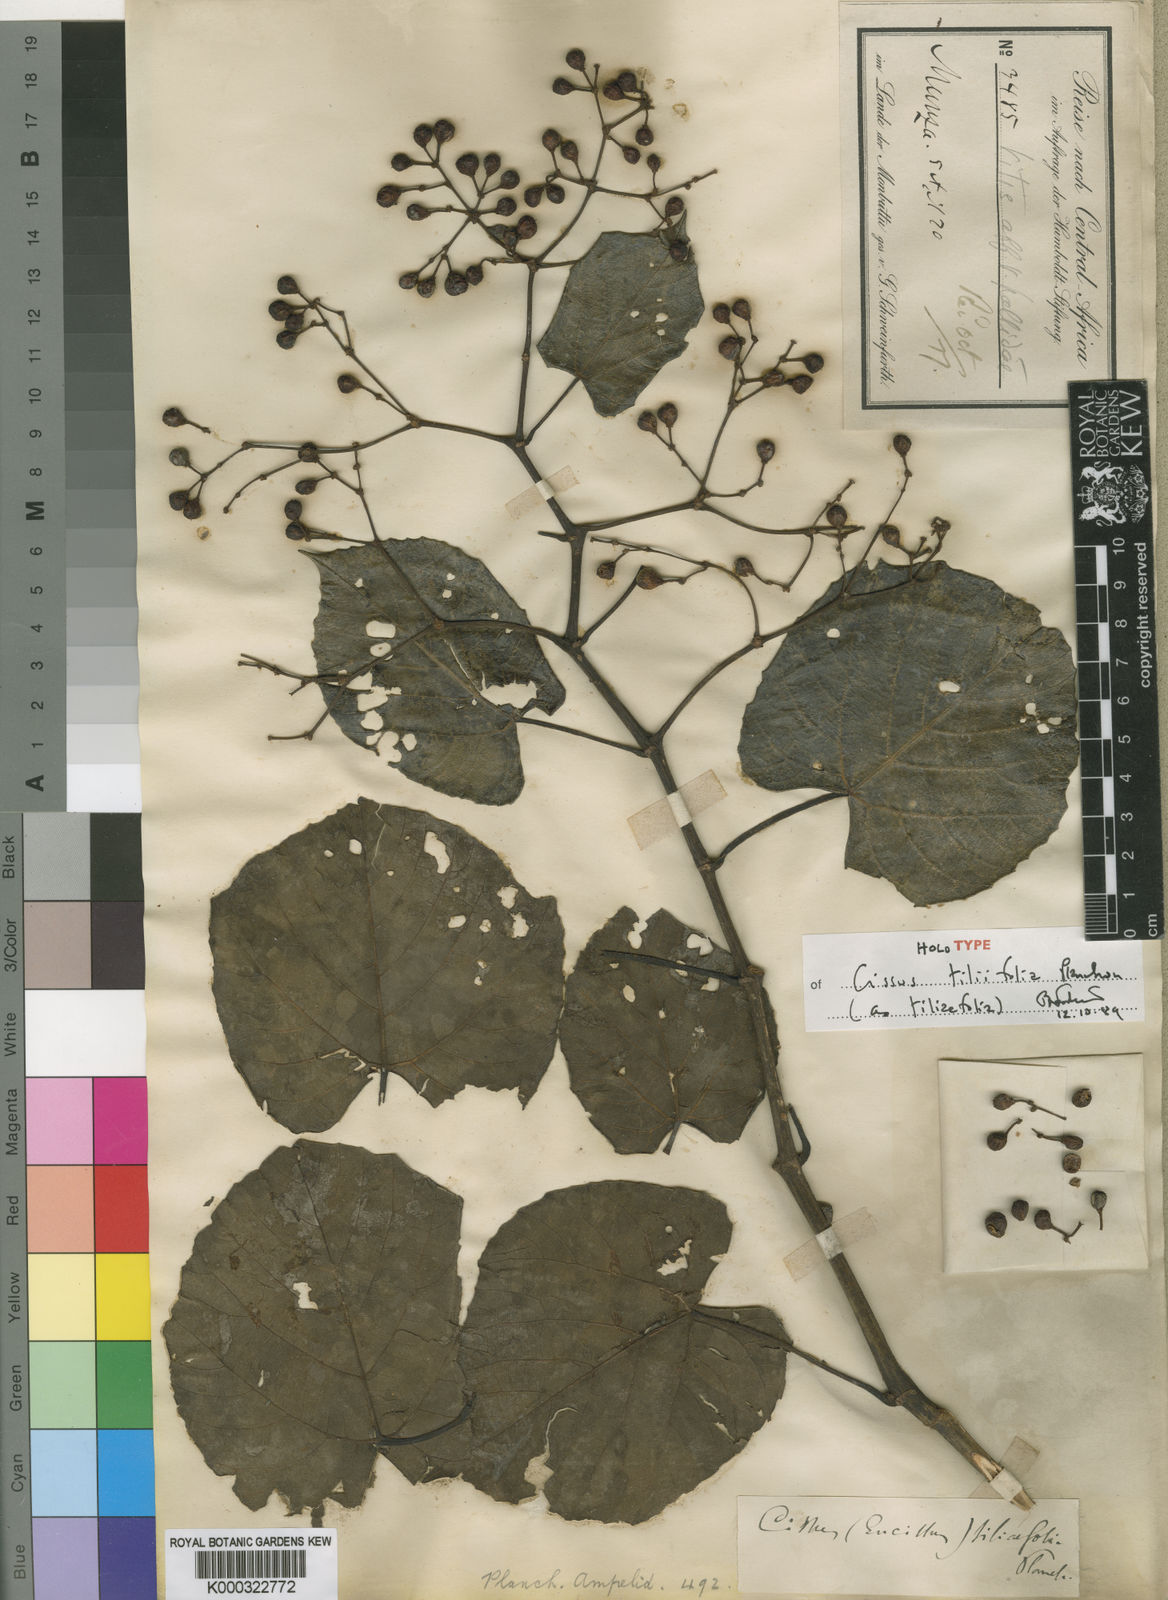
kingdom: Plantae
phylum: Tracheophyta
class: Magnoliopsida
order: Vitales
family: Vitaceae
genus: Cissus
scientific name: Cissus
